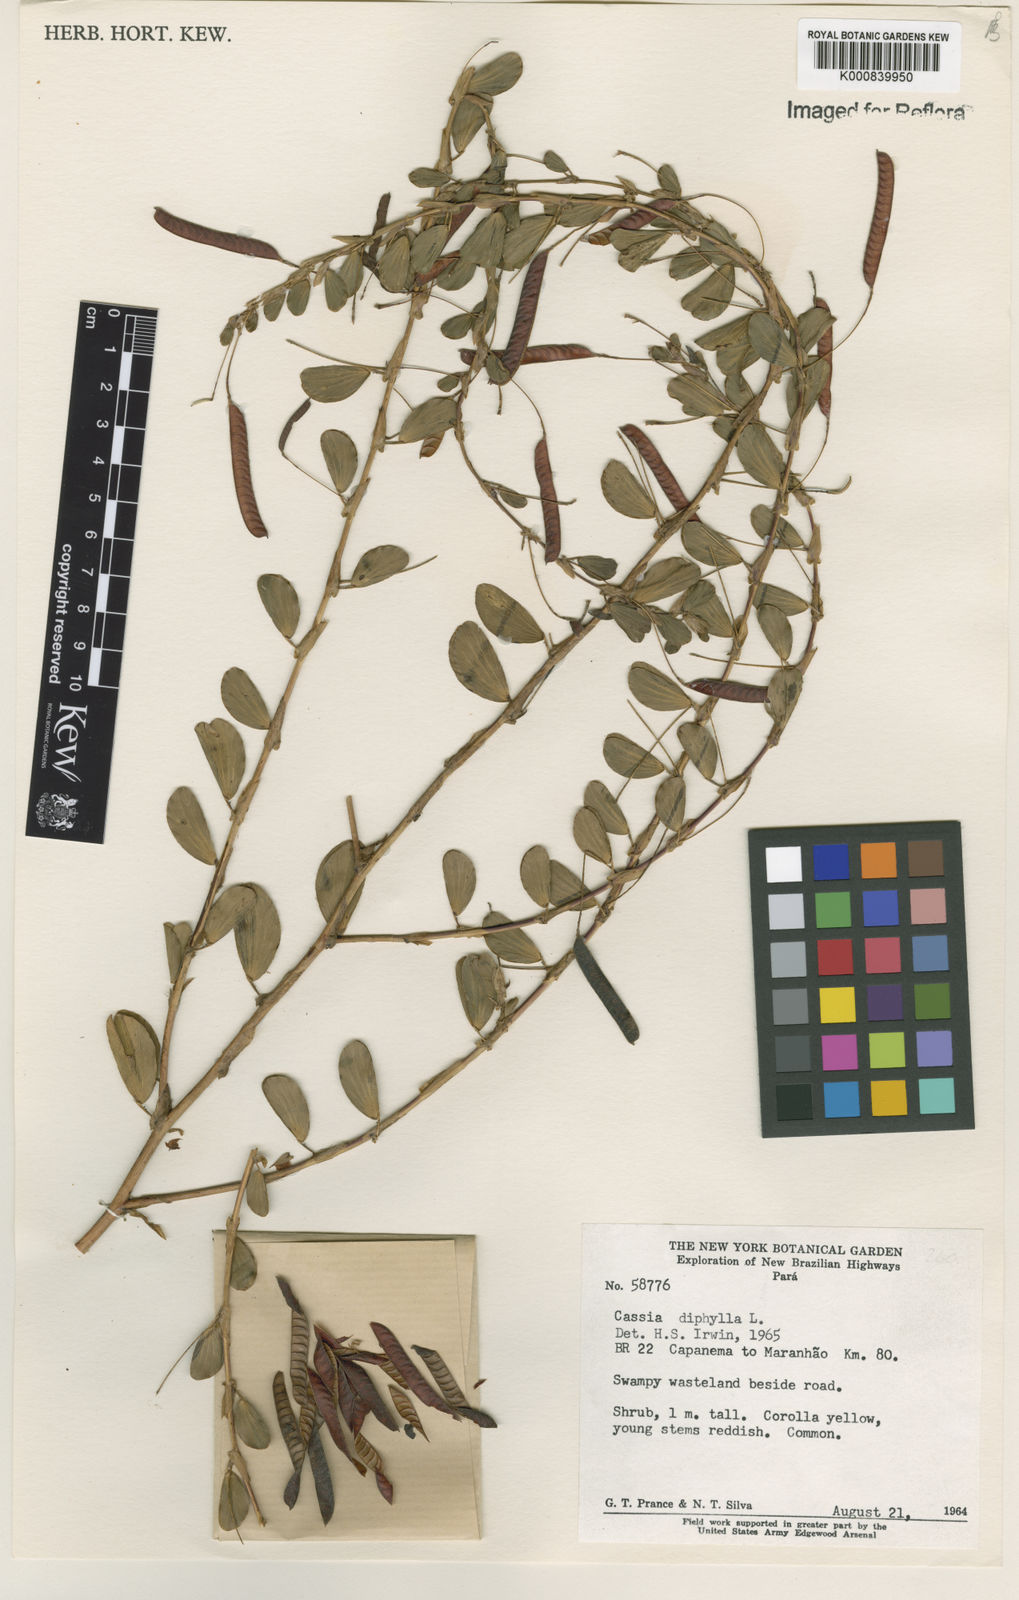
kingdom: Plantae
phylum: Tracheophyta
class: Magnoliopsida
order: Fabales
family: Fabaceae
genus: Chamaecrista
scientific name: Chamaecrista diphylla
